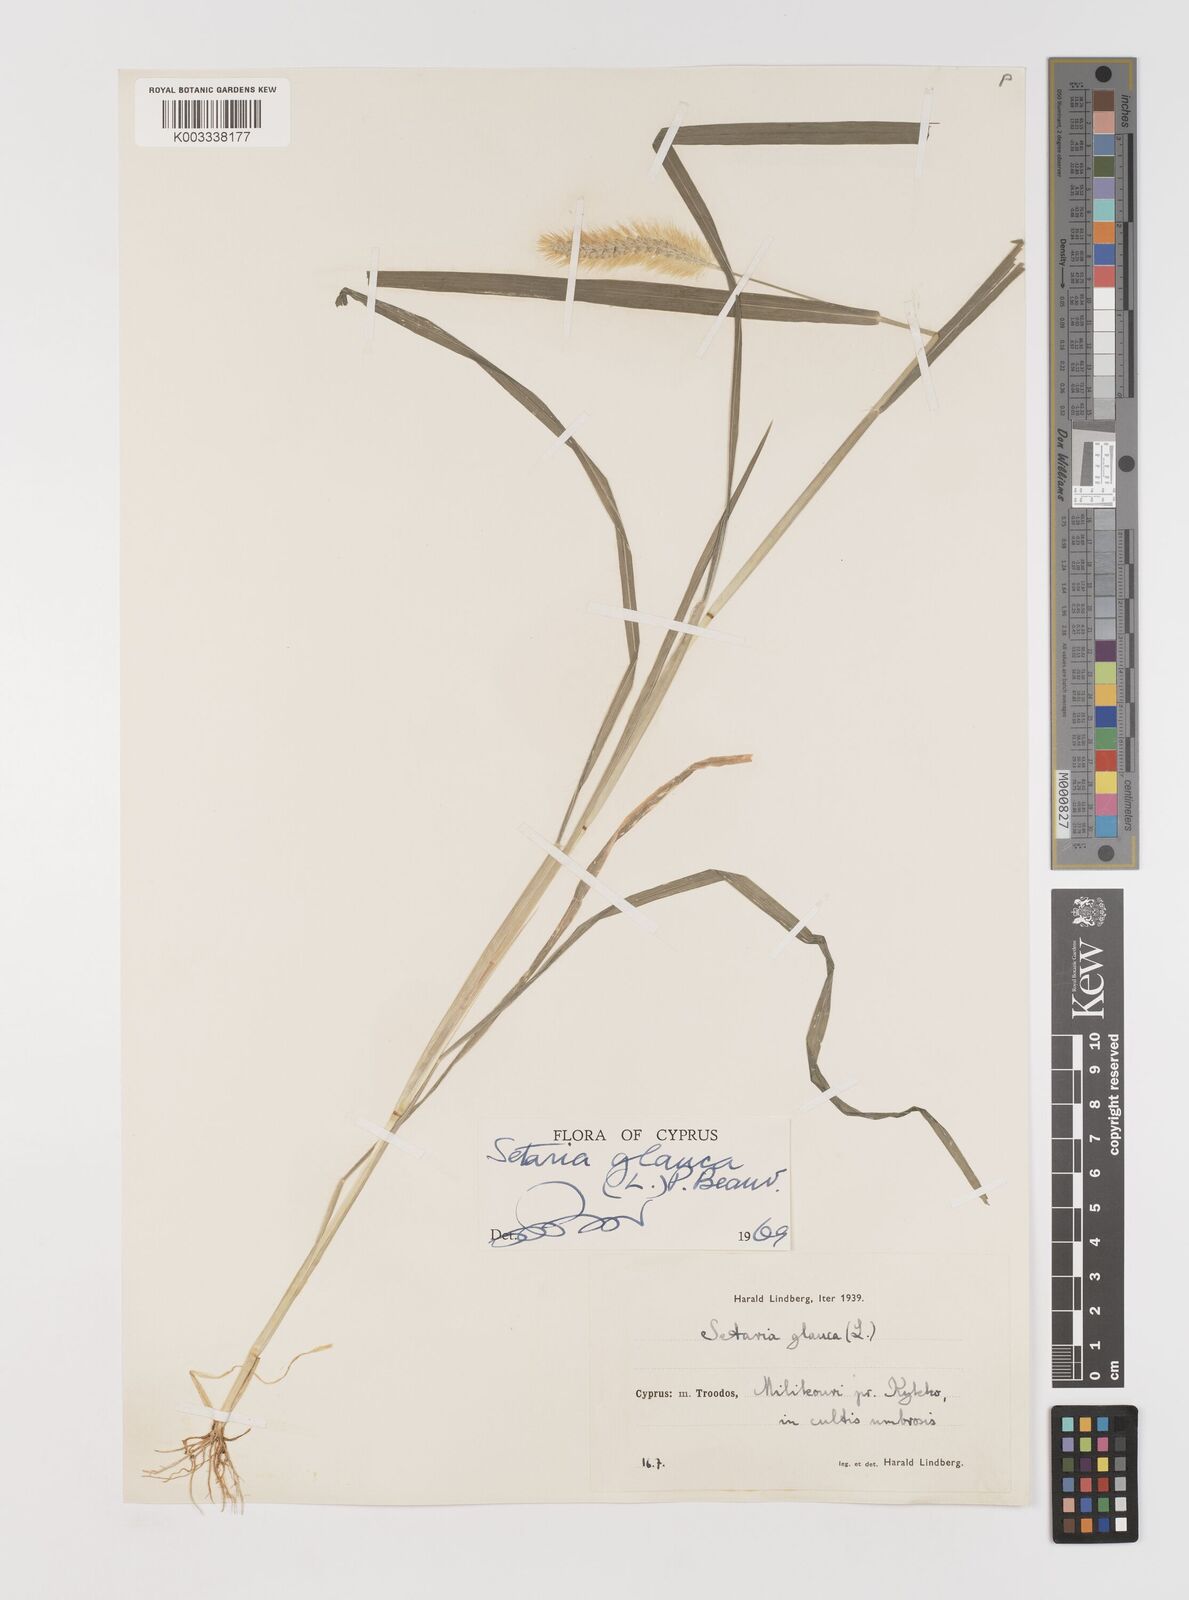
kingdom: Plantae
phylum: Tracheophyta
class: Liliopsida
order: Poales
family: Poaceae
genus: Setaria
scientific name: Setaria pumila
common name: Yellow bristle-grass
